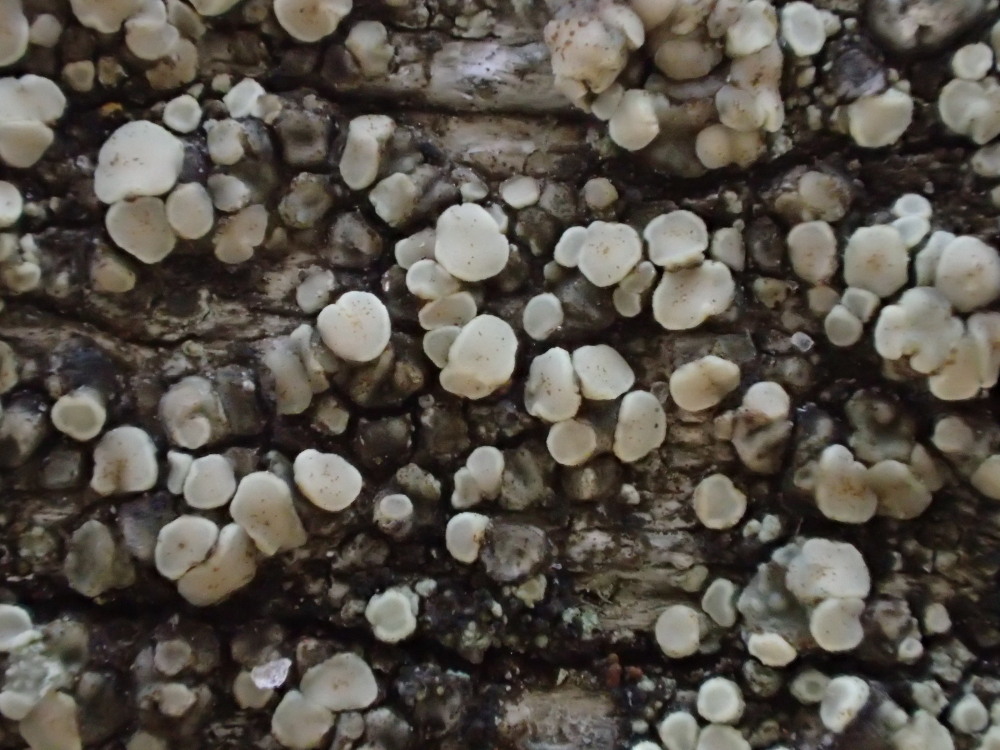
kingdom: Fungi
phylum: Ascomycota
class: Lecanoromycetes
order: Lecanorales
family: Lecanoraceae
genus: Lecanora
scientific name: Lecanora polytropa
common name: bleggrøn kantskivelav
